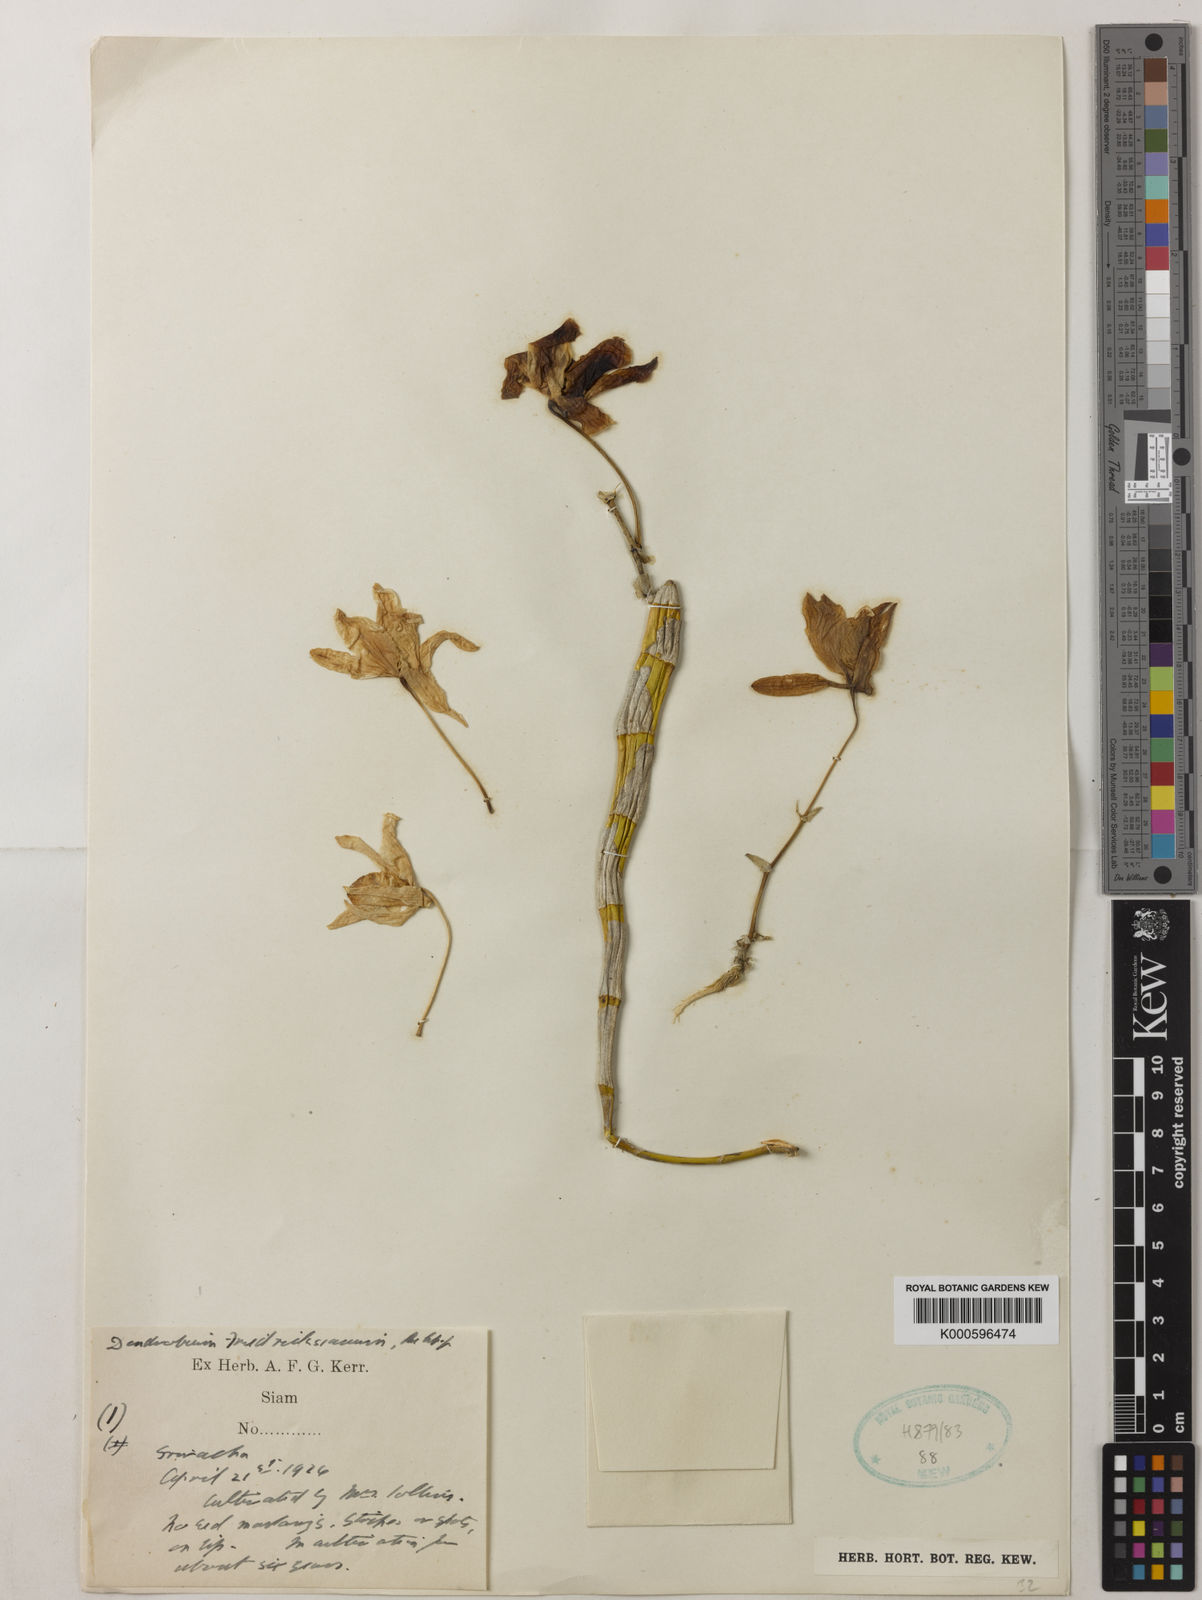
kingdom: Plantae
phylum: Tracheophyta
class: Liliopsida
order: Asparagales
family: Orchidaceae
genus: Dendrobium
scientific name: Dendrobium friedericksianum
